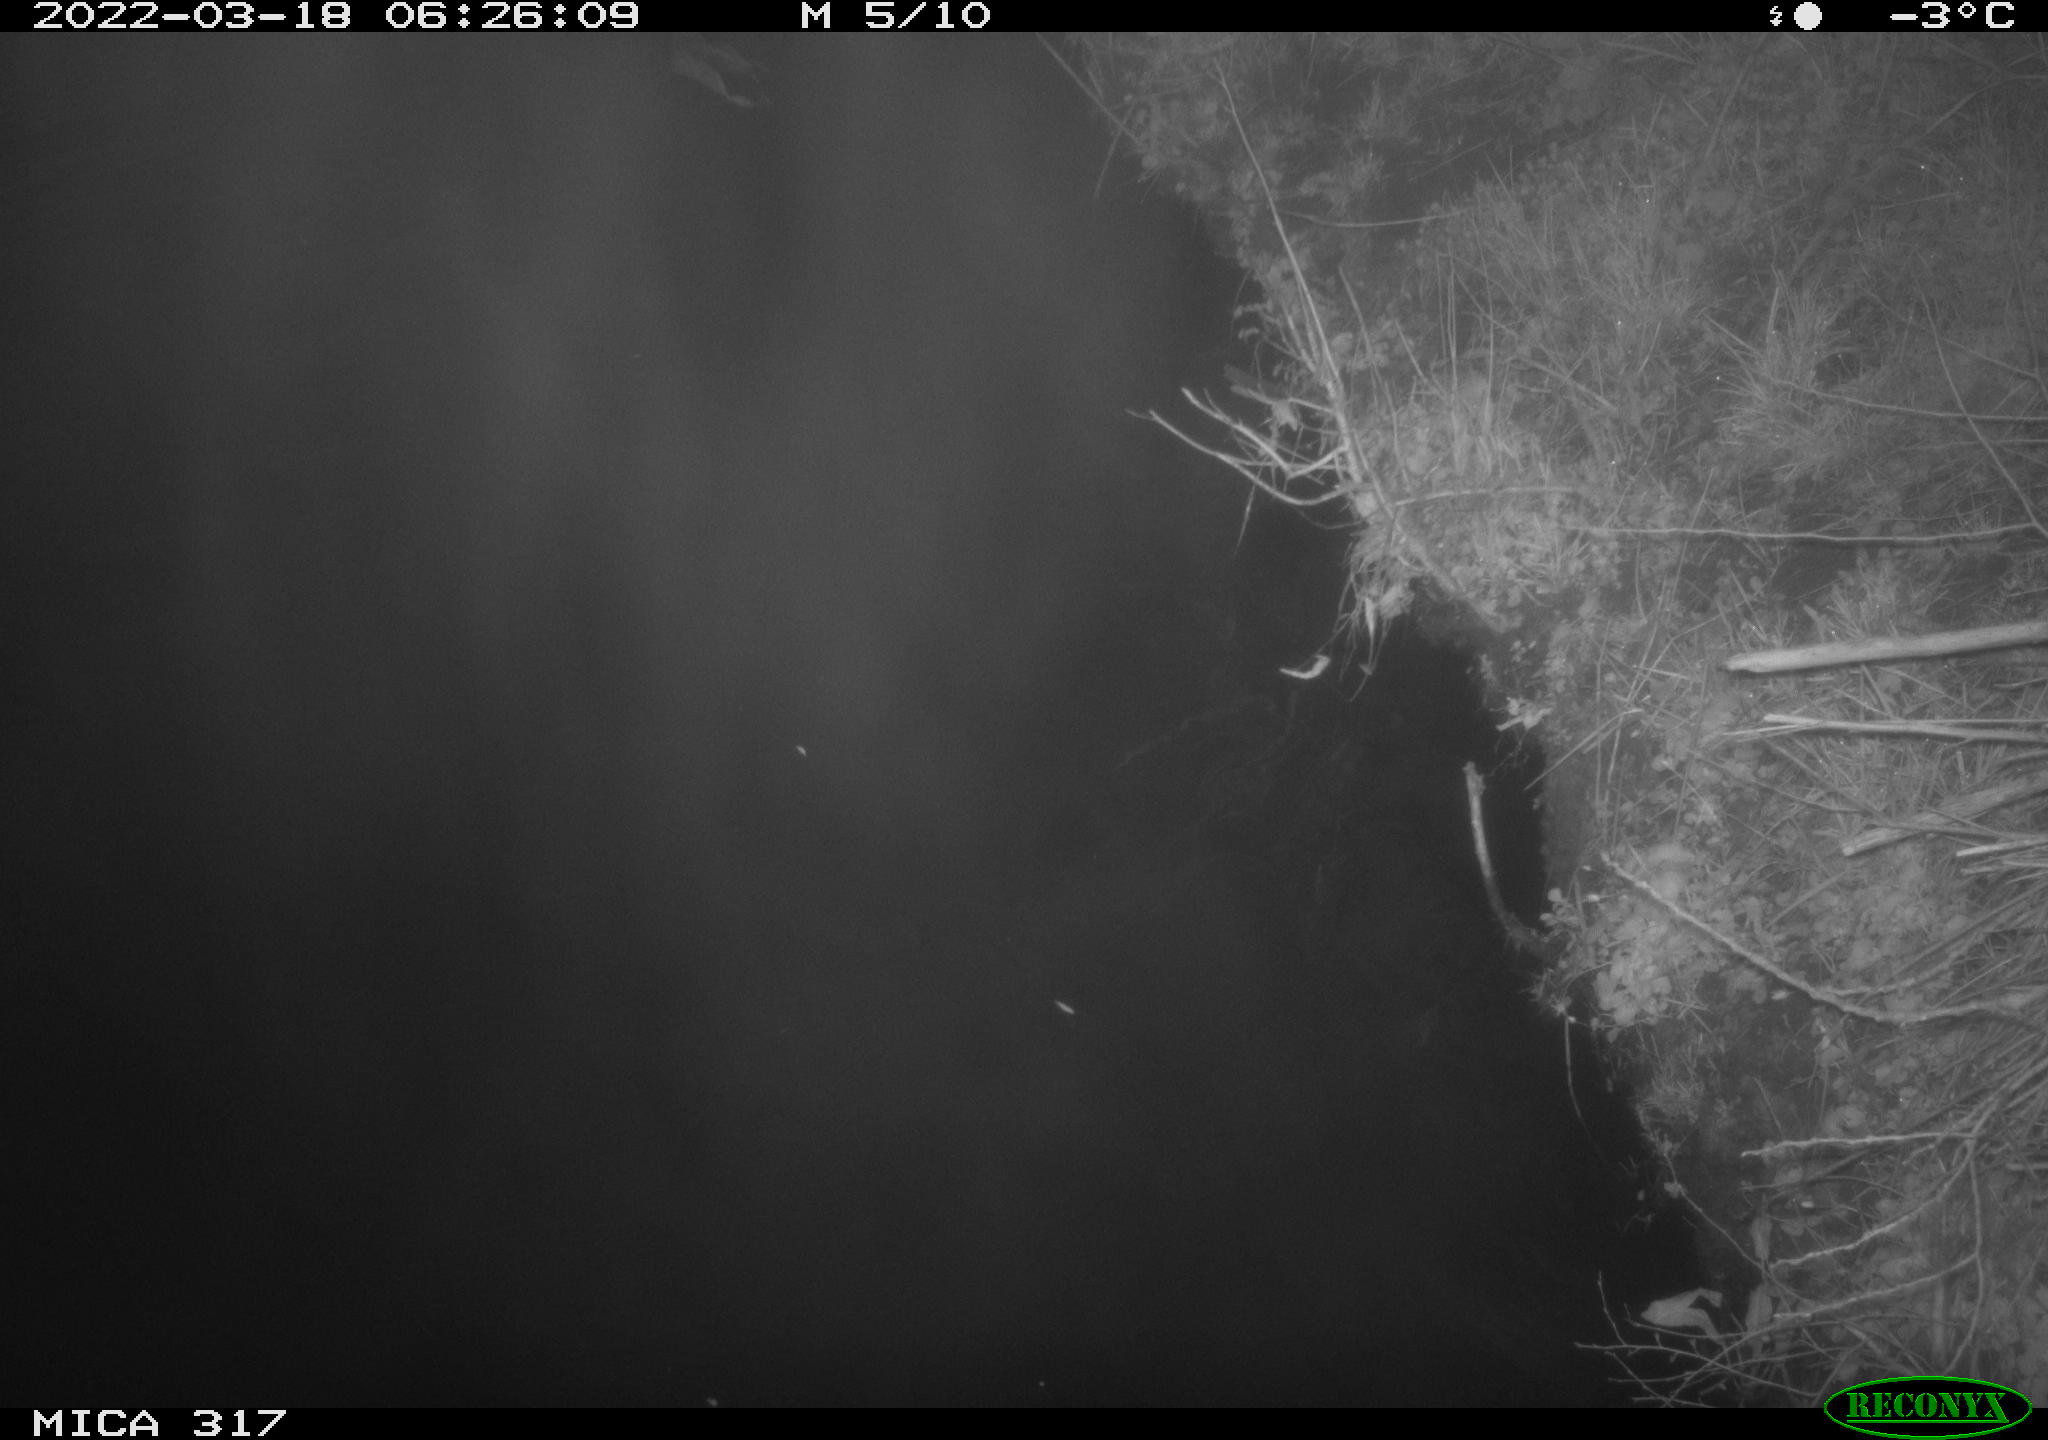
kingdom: Animalia
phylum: Chordata
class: Aves
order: Anseriformes
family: Anatidae
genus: Anas
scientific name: Anas platyrhynchos
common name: Mallard
